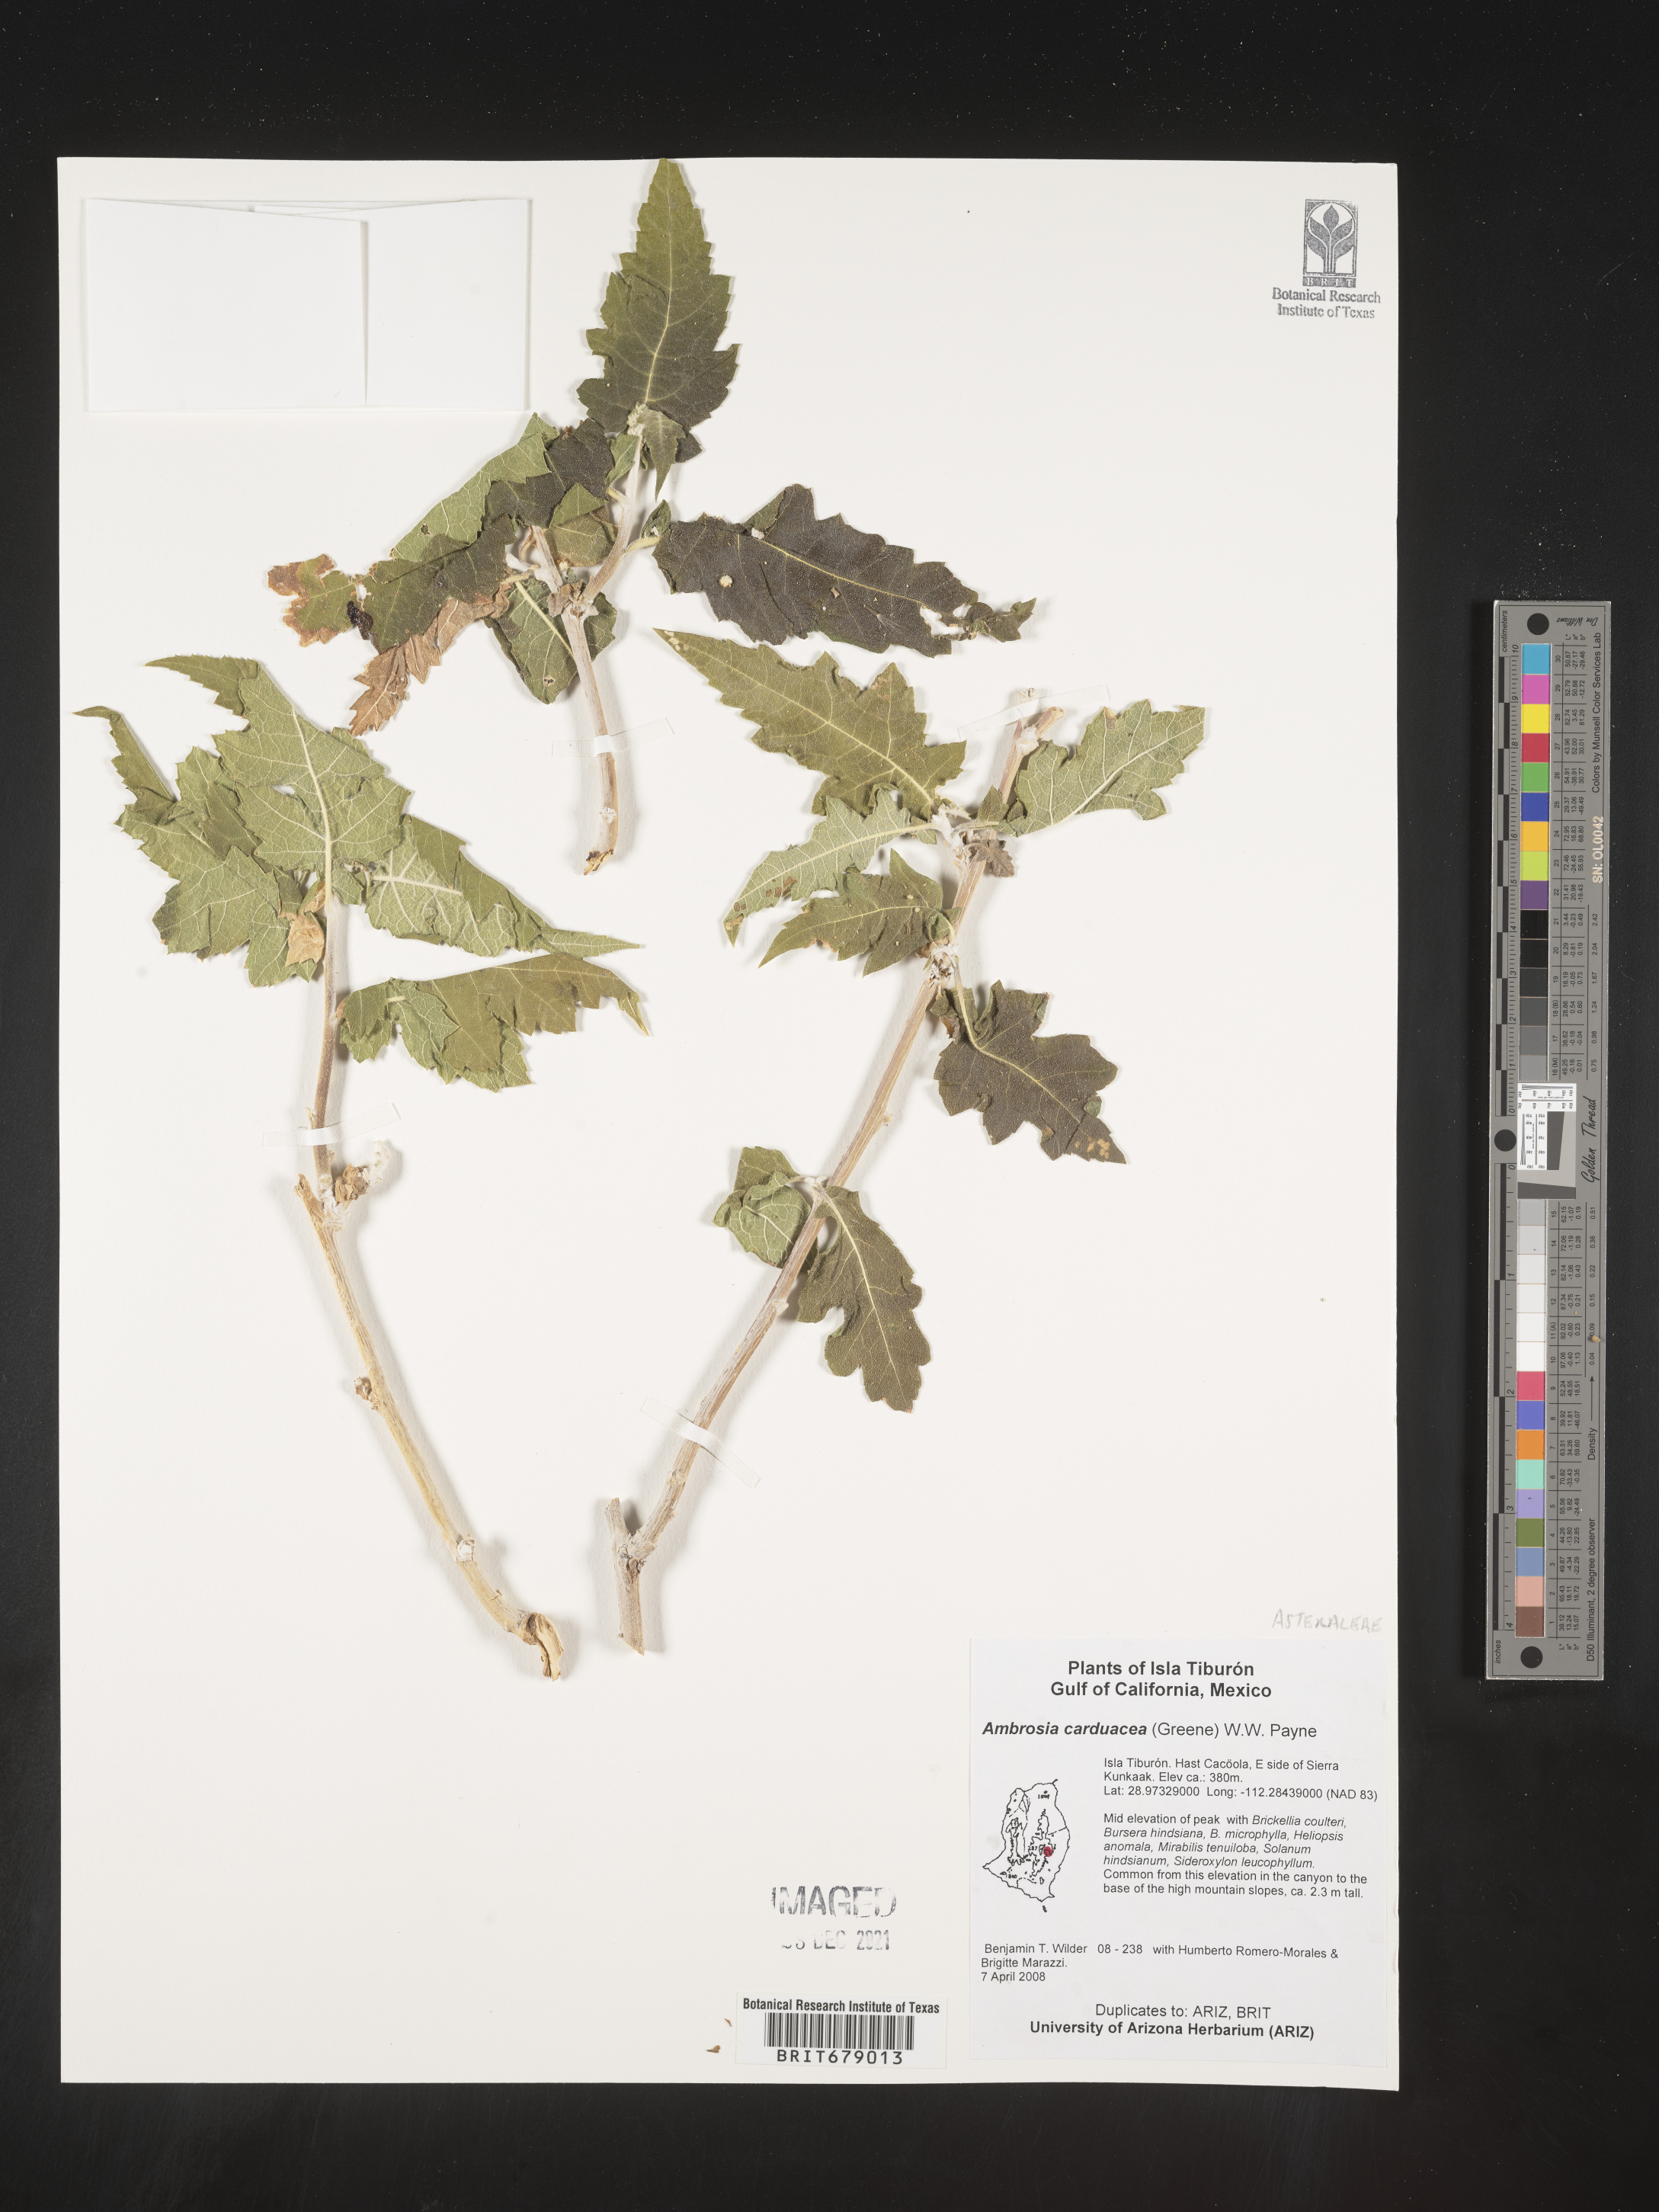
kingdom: Plantae
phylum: Tracheophyta
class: Magnoliopsida
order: Asterales
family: Asteraceae
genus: Ambrosia
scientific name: Ambrosia
